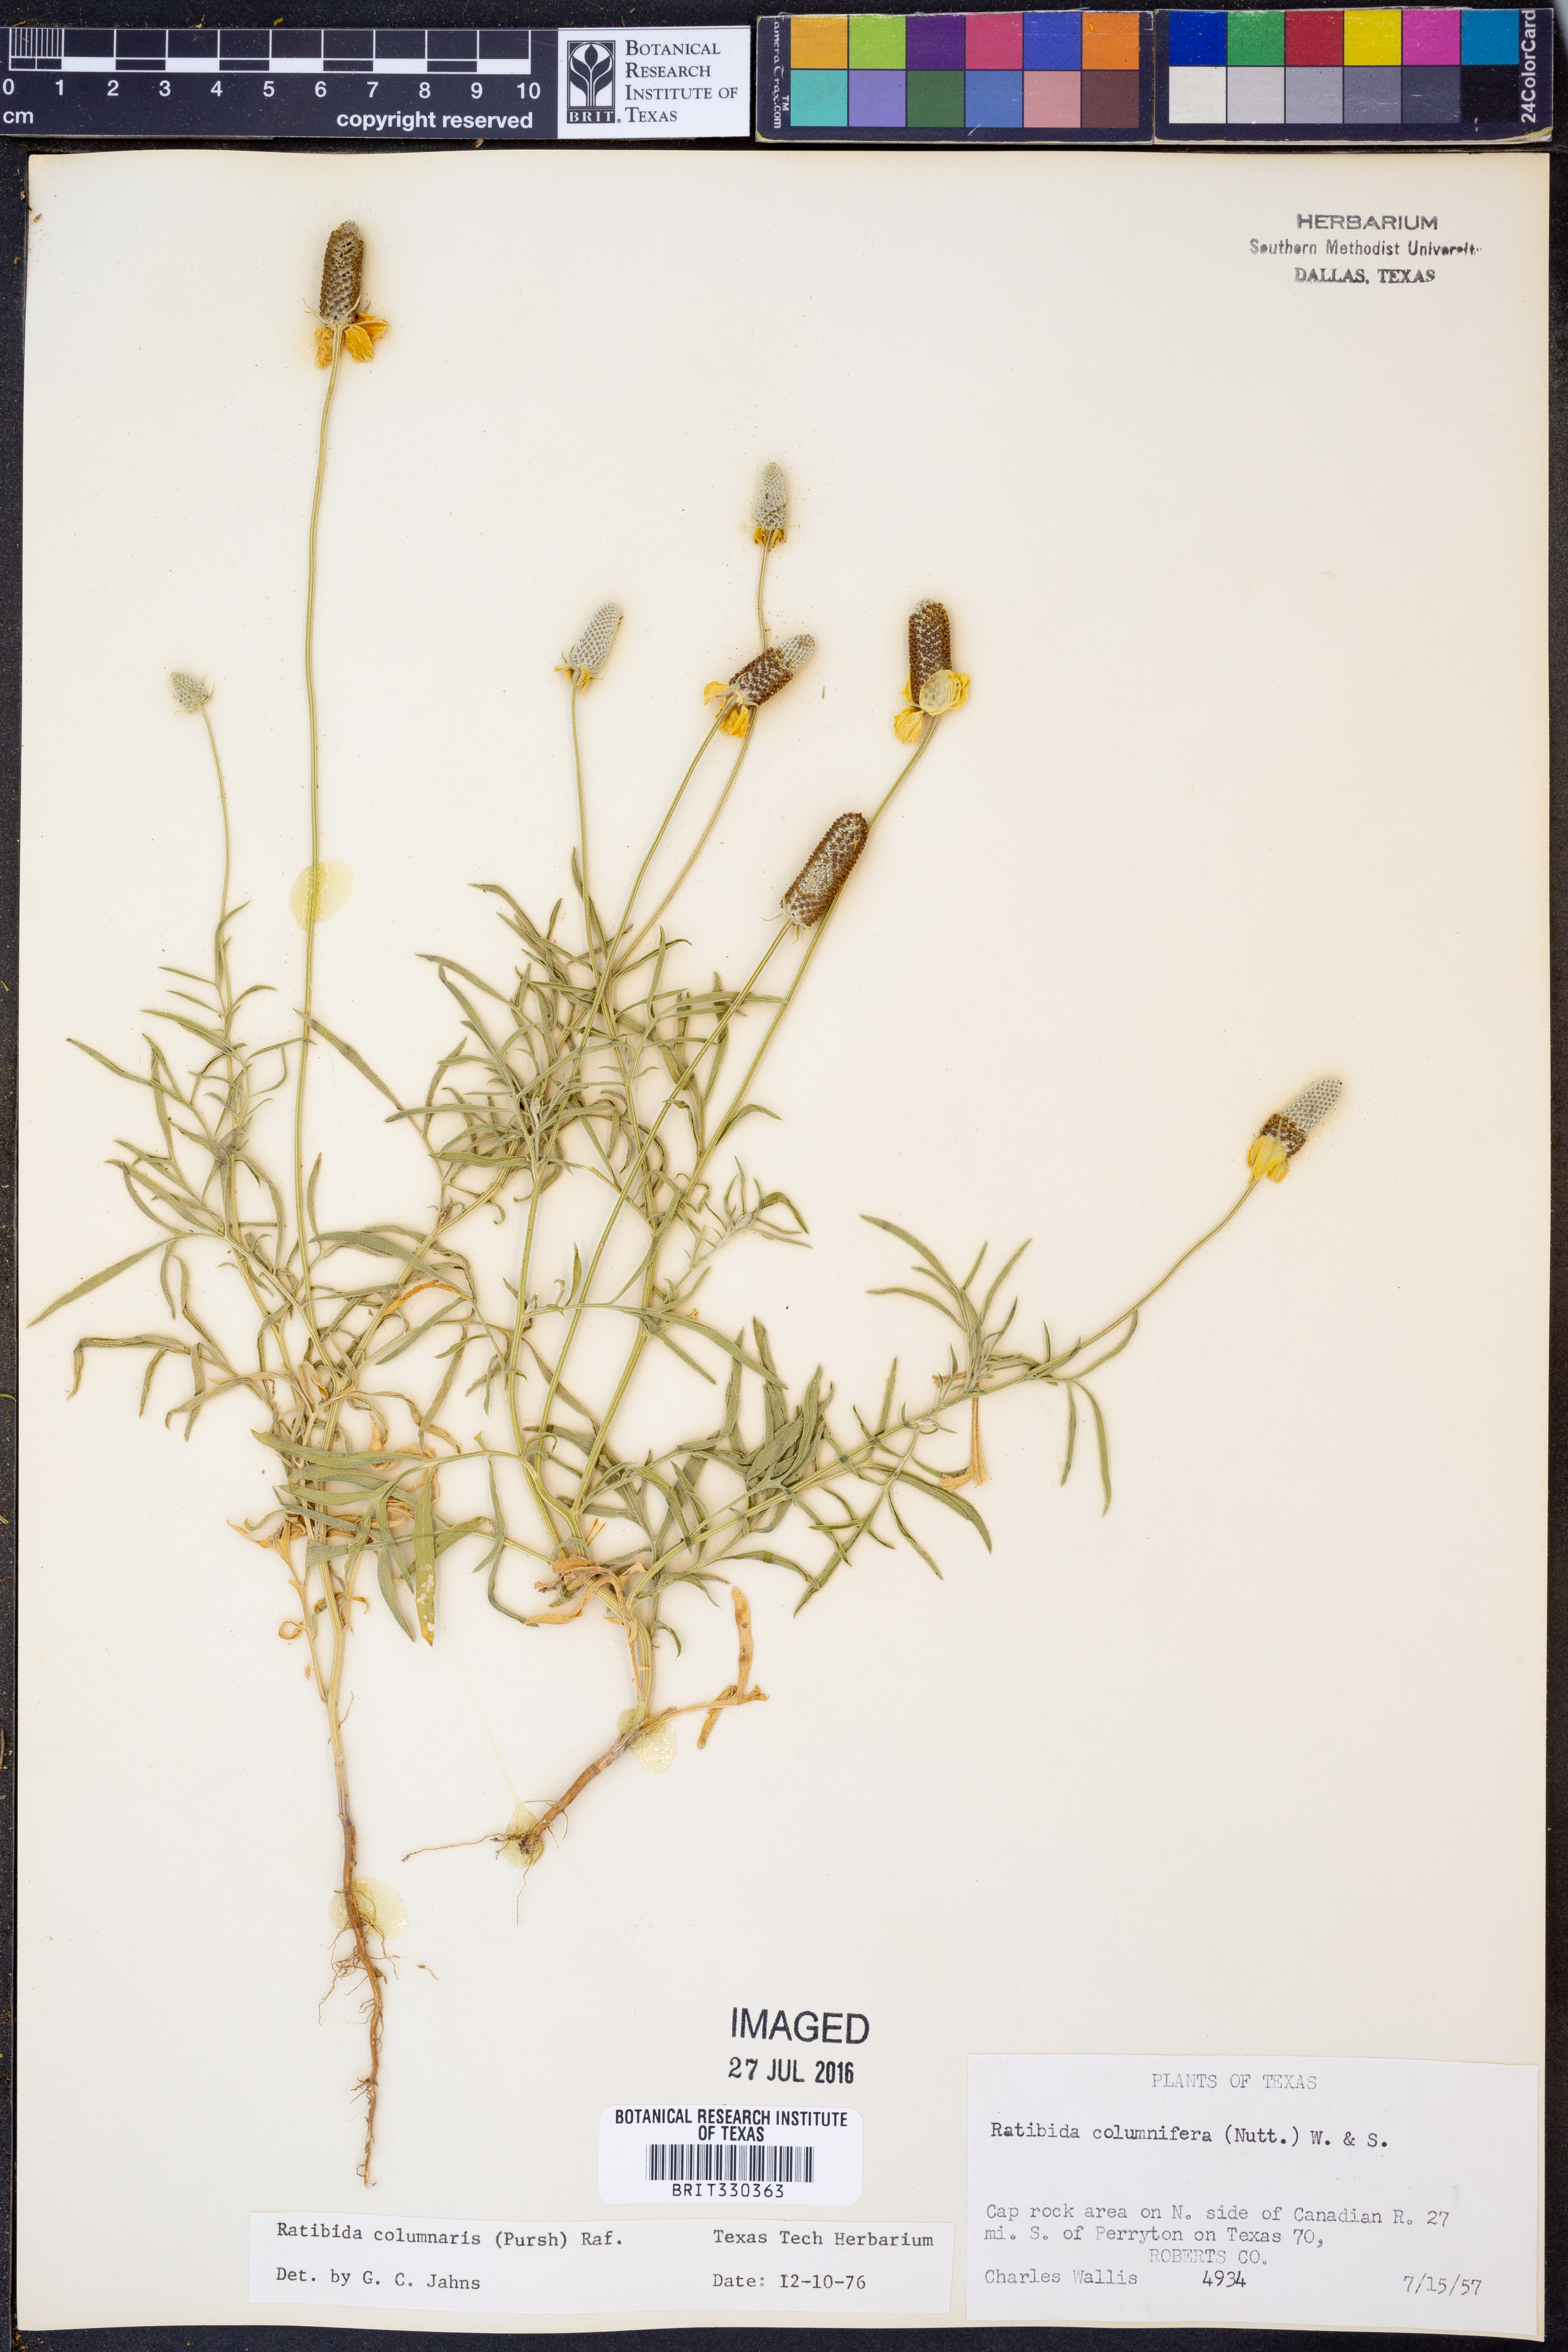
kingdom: Plantae
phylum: Tracheophyta
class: Magnoliopsida
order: Asterales
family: Asteraceae
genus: Ratibida
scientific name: Ratibida columnifera
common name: Prairie coneflower
